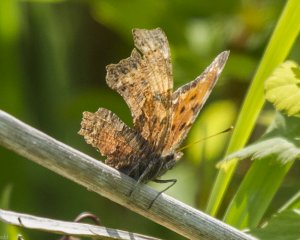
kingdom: Animalia
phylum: Arthropoda
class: Insecta
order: Lepidoptera
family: Nymphalidae
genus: Polygonia
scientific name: Polygonia faunus
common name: Green Comma
